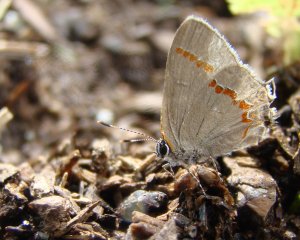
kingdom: Animalia
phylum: Arthropoda
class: Insecta
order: Lepidoptera
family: Lycaenidae
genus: Calycopis
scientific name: Calycopis cecrops
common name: Red-banded Hairstreak
